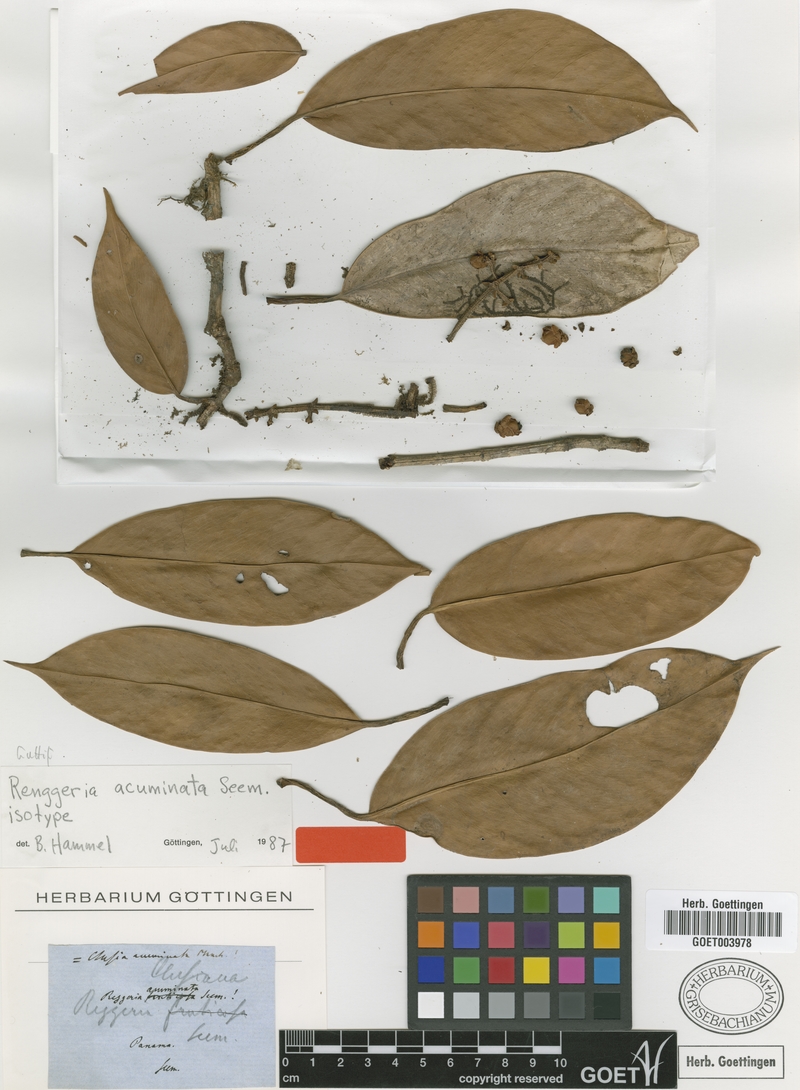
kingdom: Plantae
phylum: Tracheophyta
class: Magnoliopsida
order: Malpighiales
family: Clusiaceae
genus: Clusia
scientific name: Clusia amazonica
